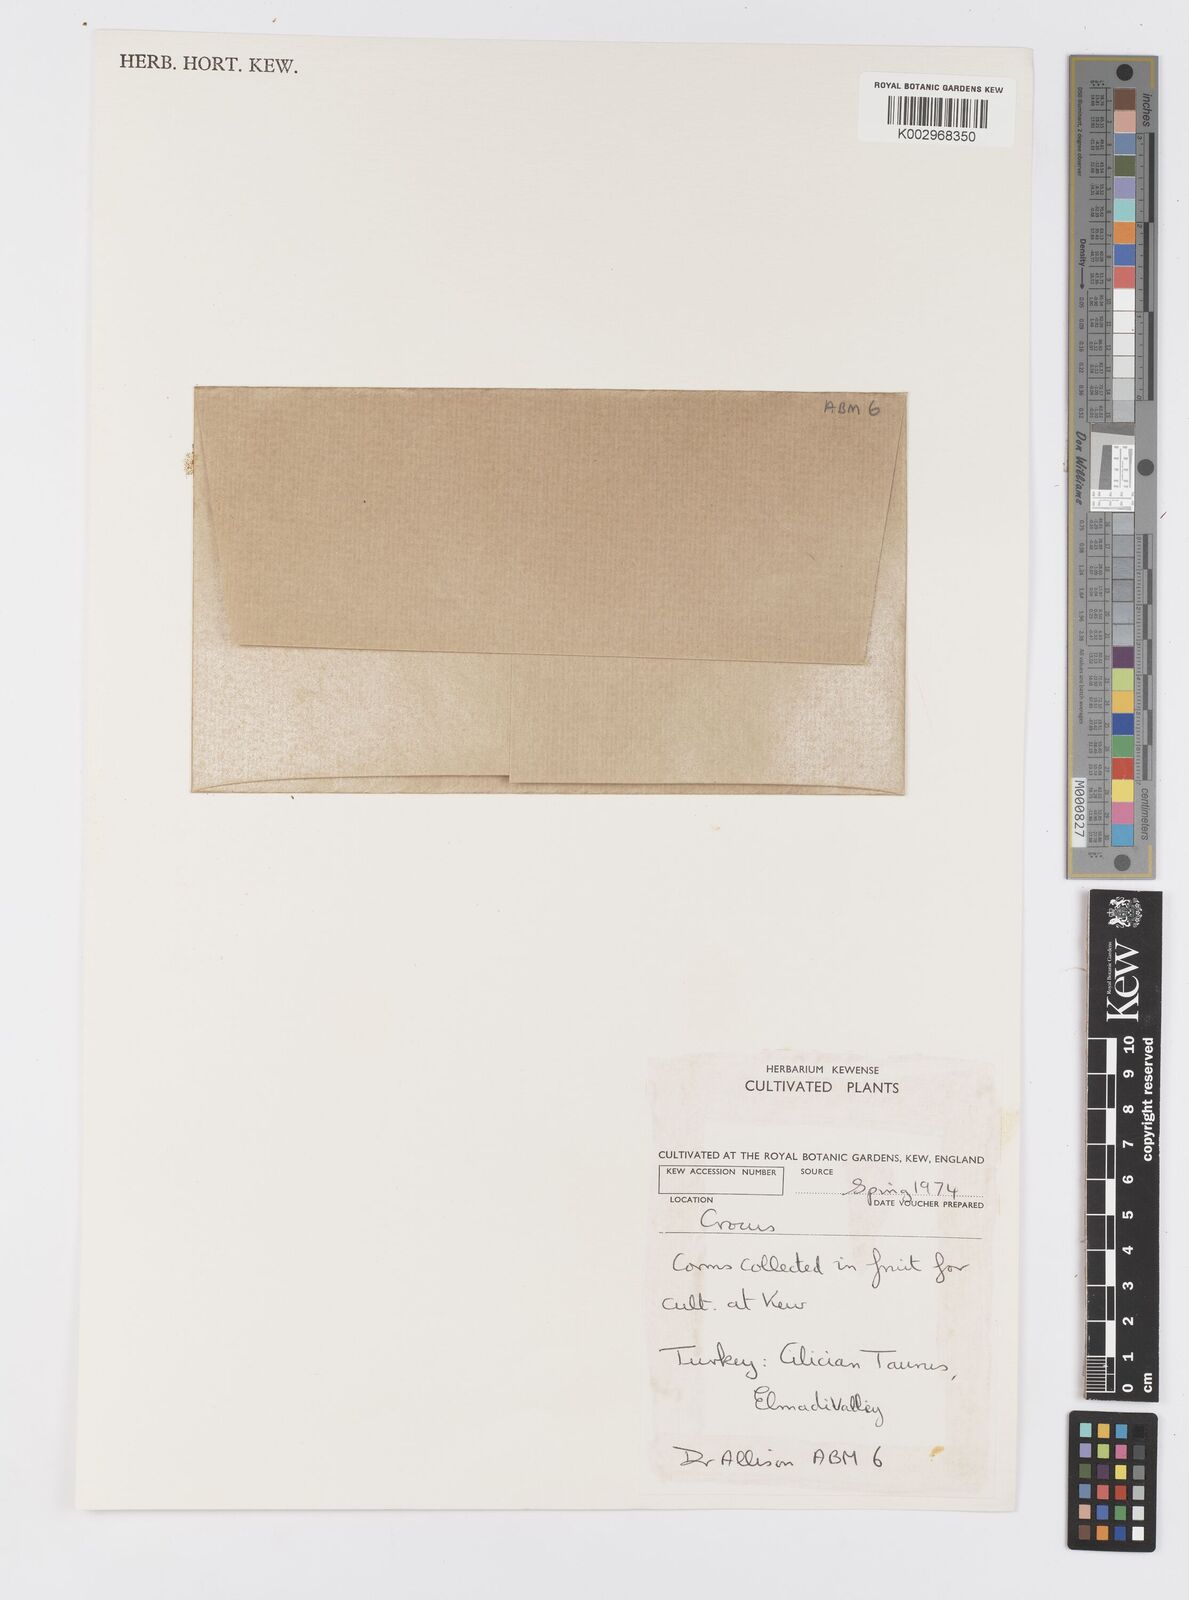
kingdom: Plantae
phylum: Tracheophyta
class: Liliopsida
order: Asparagales
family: Iridaceae
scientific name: Iridaceae
